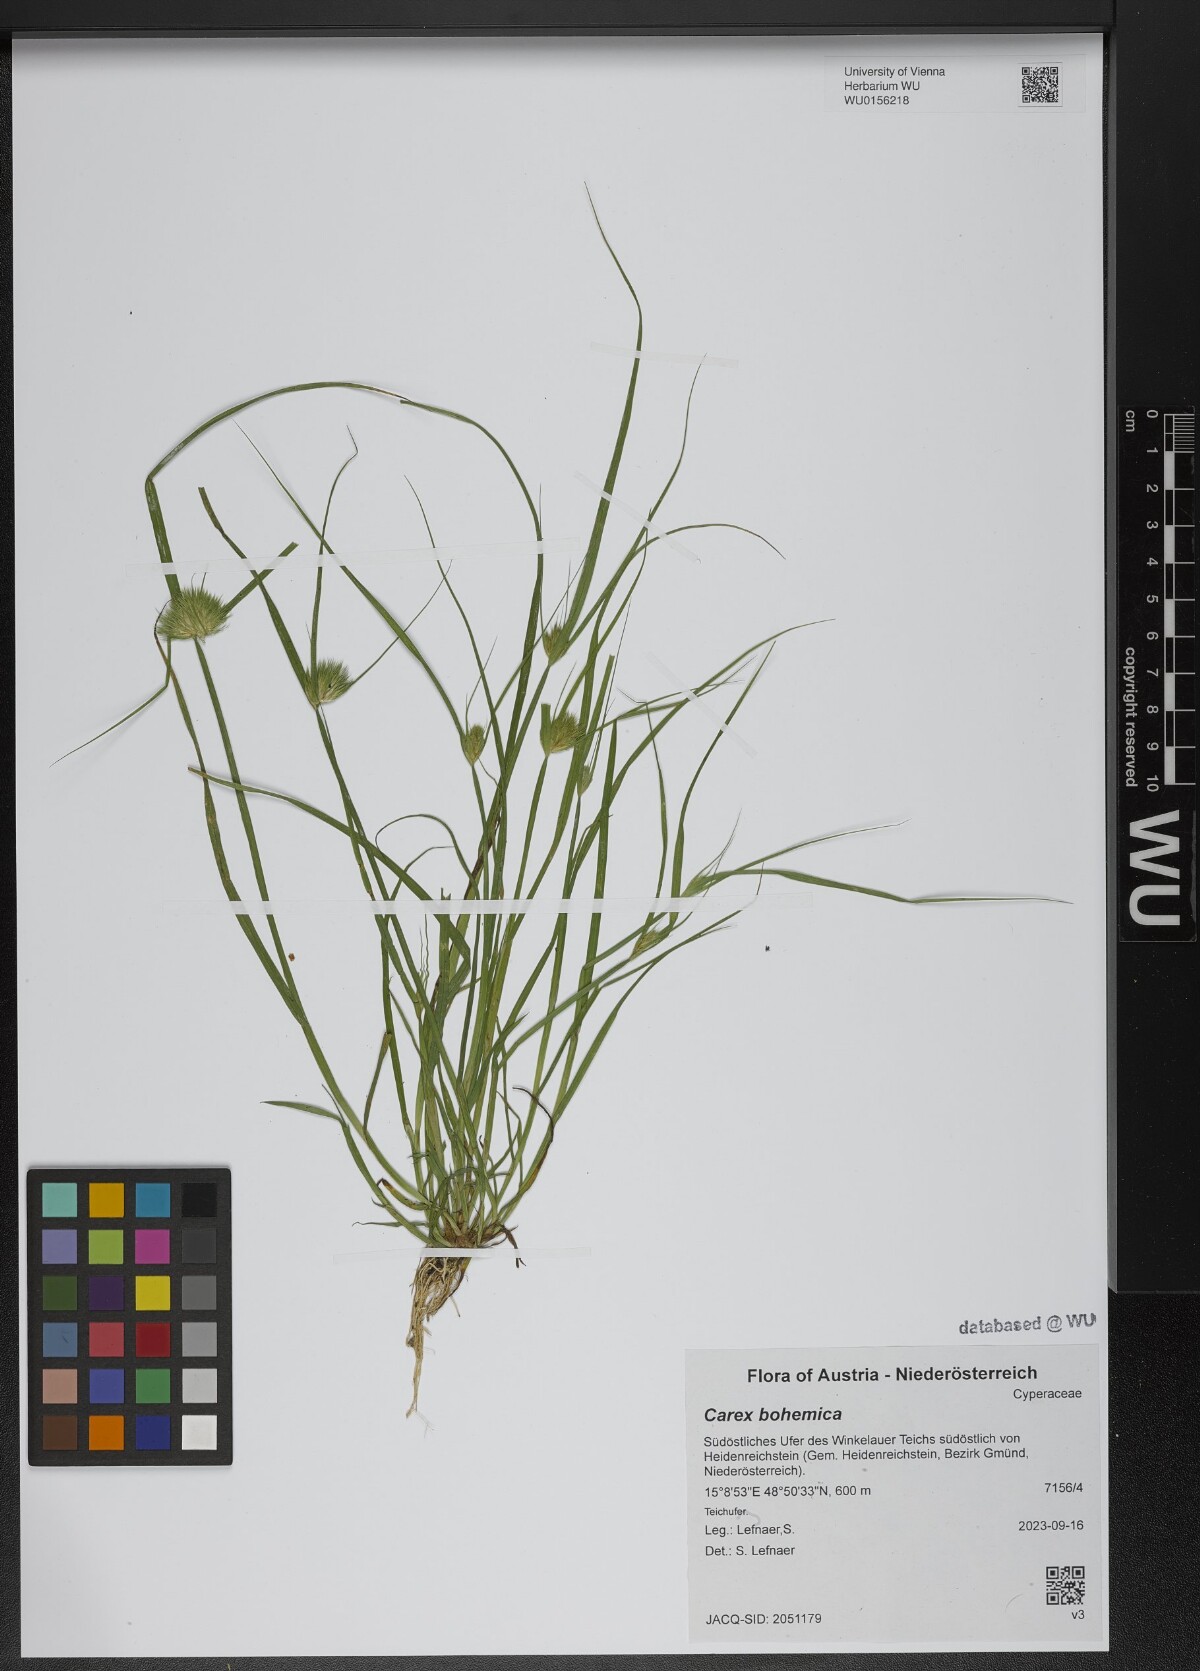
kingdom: Plantae
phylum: Tracheophyta
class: Liliopsida
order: Poales
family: Cyperaceae
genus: Carex
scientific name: Carex bohemica
